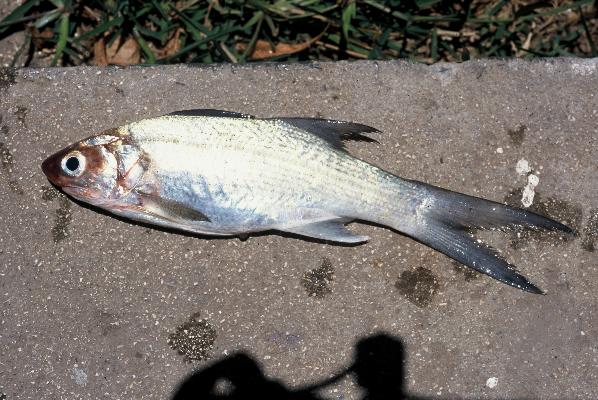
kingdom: Animalia
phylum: Chordata
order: Perciformes
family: Polynemidae
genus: Polydactylus
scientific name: Polydactylus plebeius
